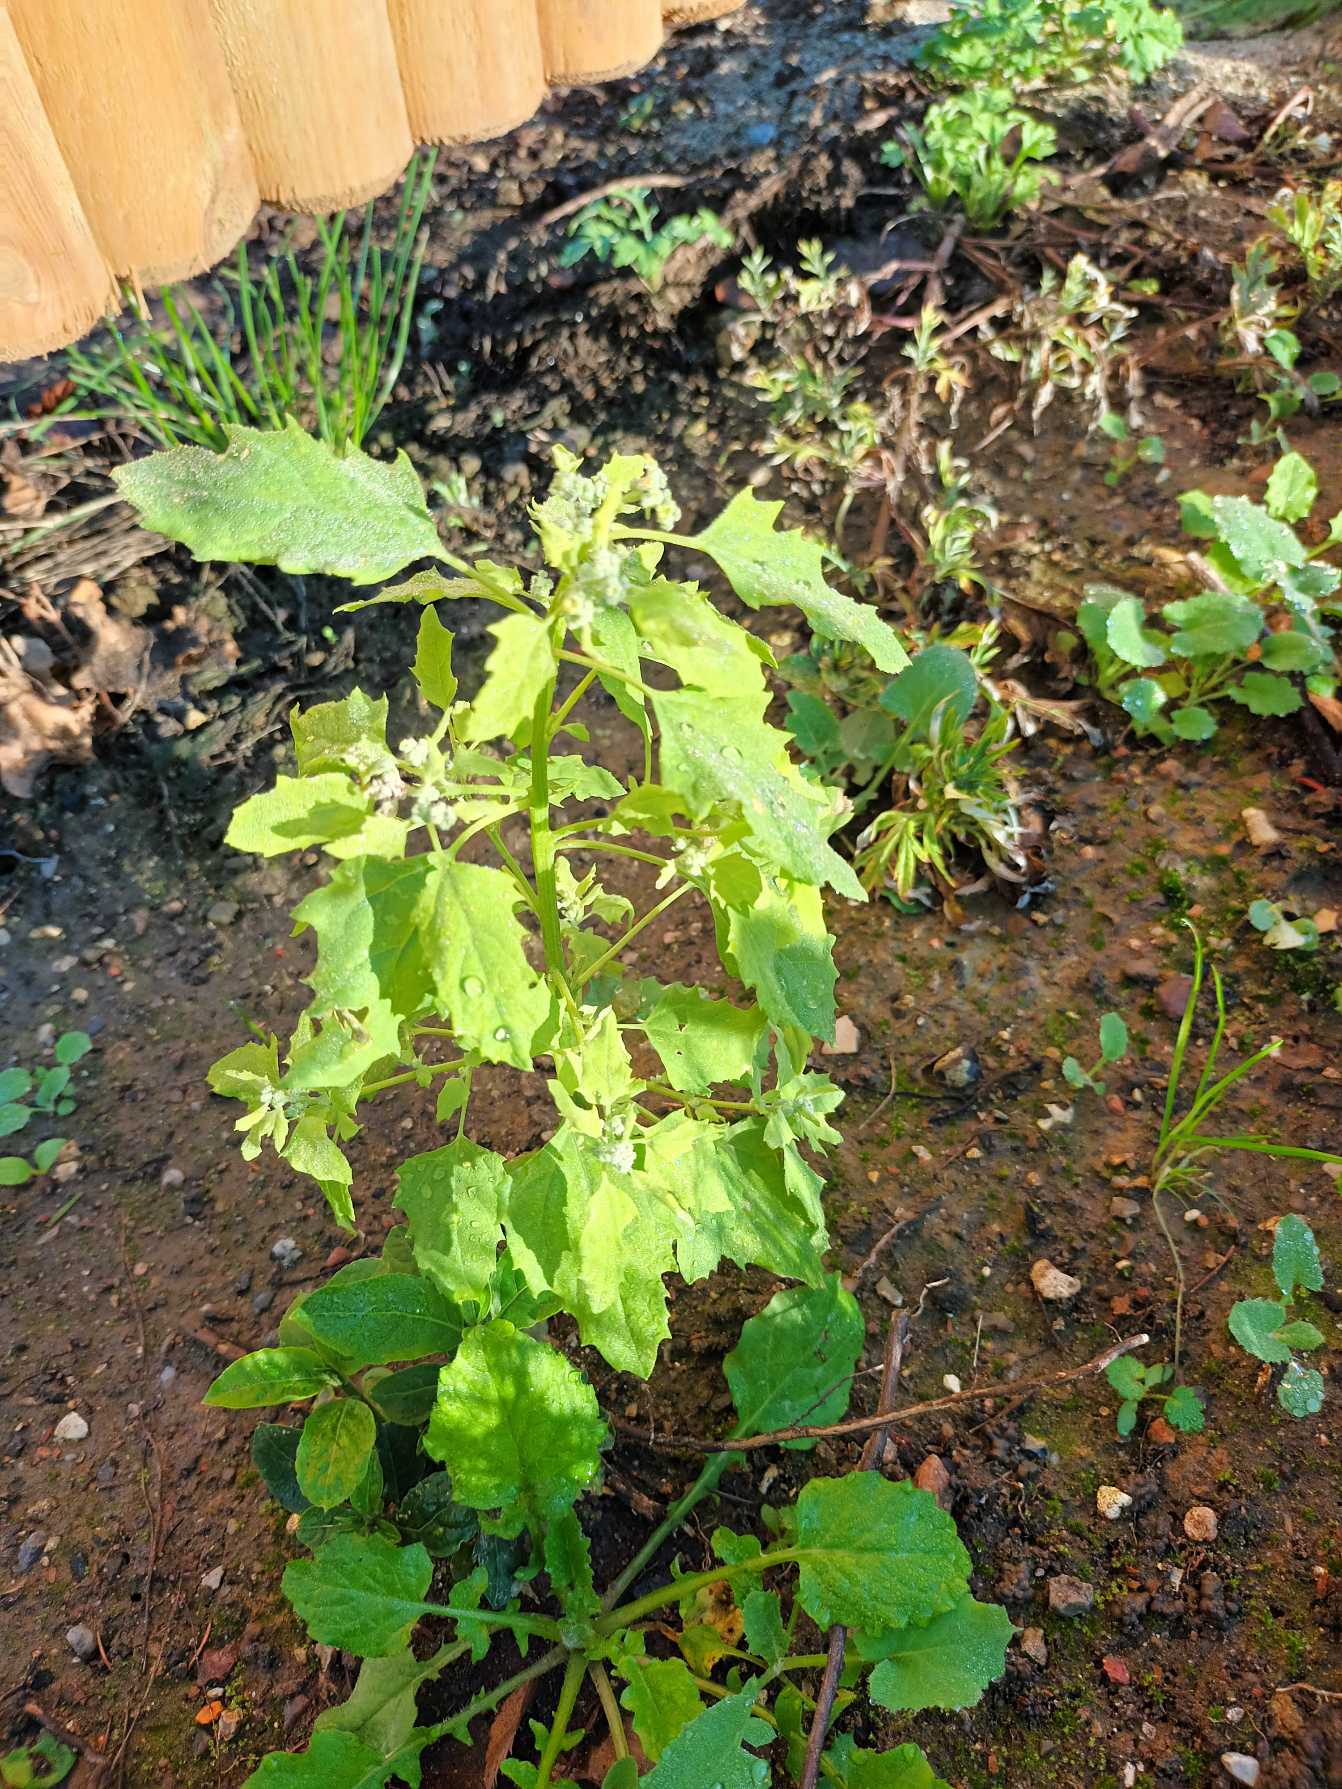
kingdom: Plantae
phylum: Tracheophyta
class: Magnoliopsida
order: Caryophyllales
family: Amaranthaceae
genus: Chenopodium
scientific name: Chenopodium album
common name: Hvidmelet gåsefod
